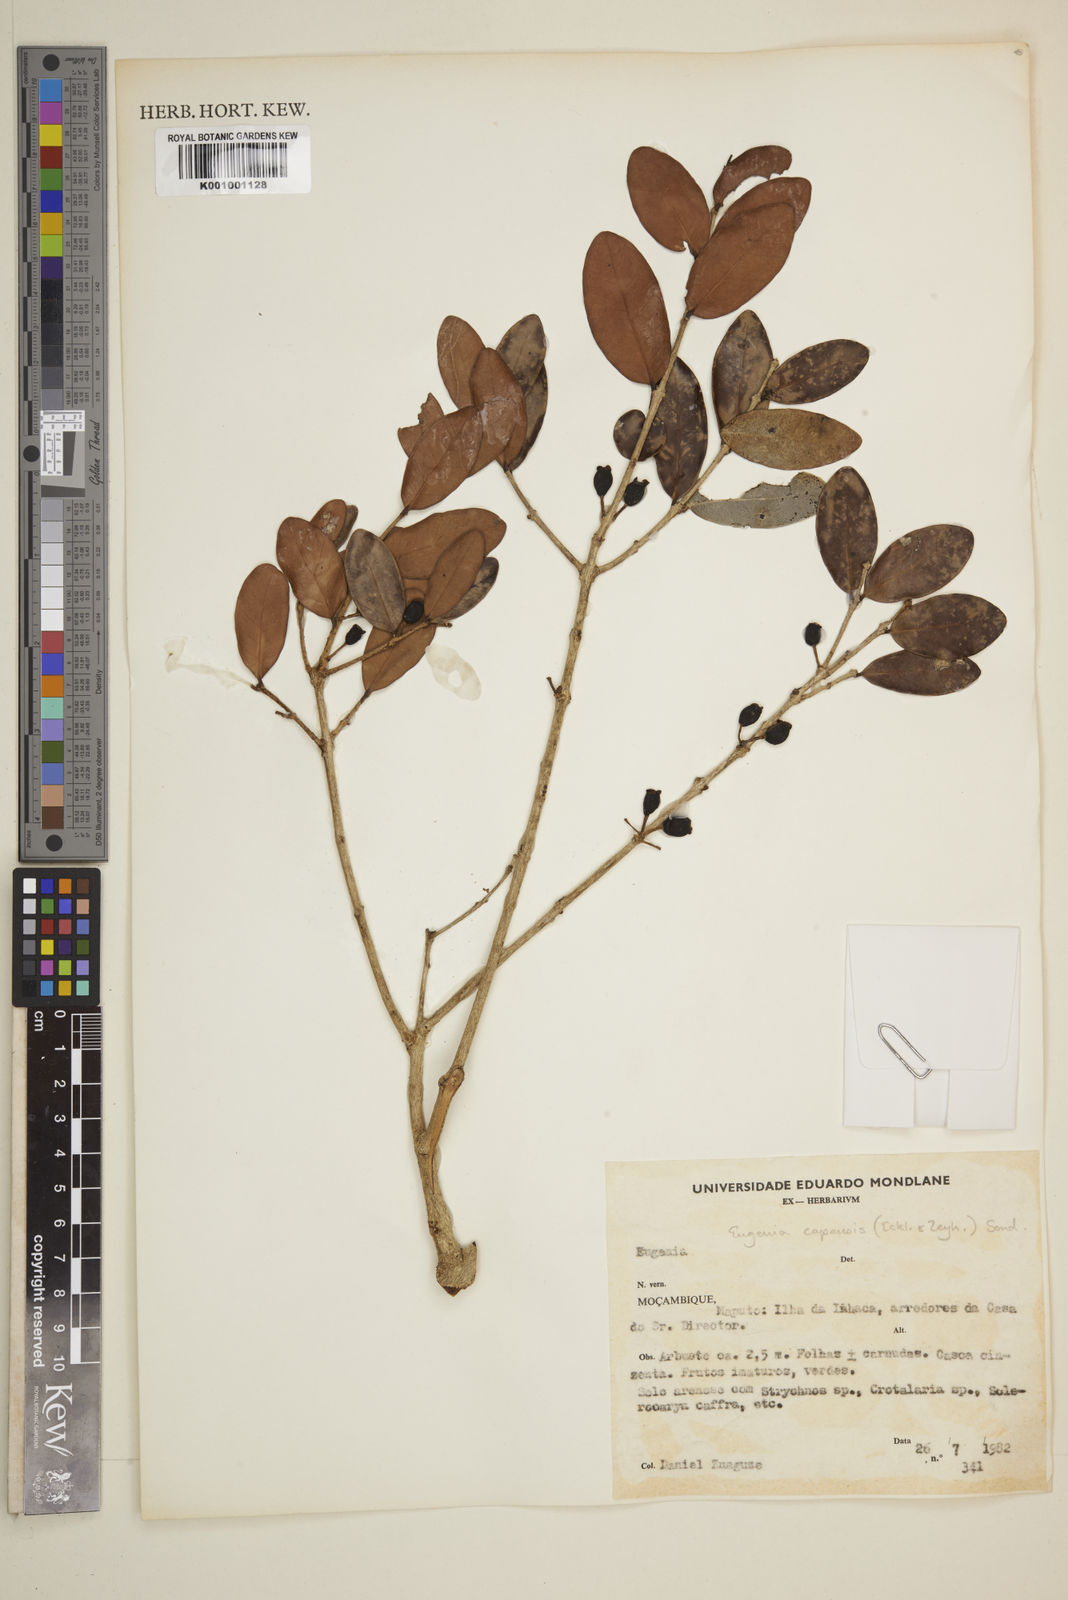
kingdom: Plantae
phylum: Tracheophyta
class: Magnoliopsida
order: Myrtales
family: Myrtaceae
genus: Eugenia
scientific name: Eugenia capensis
